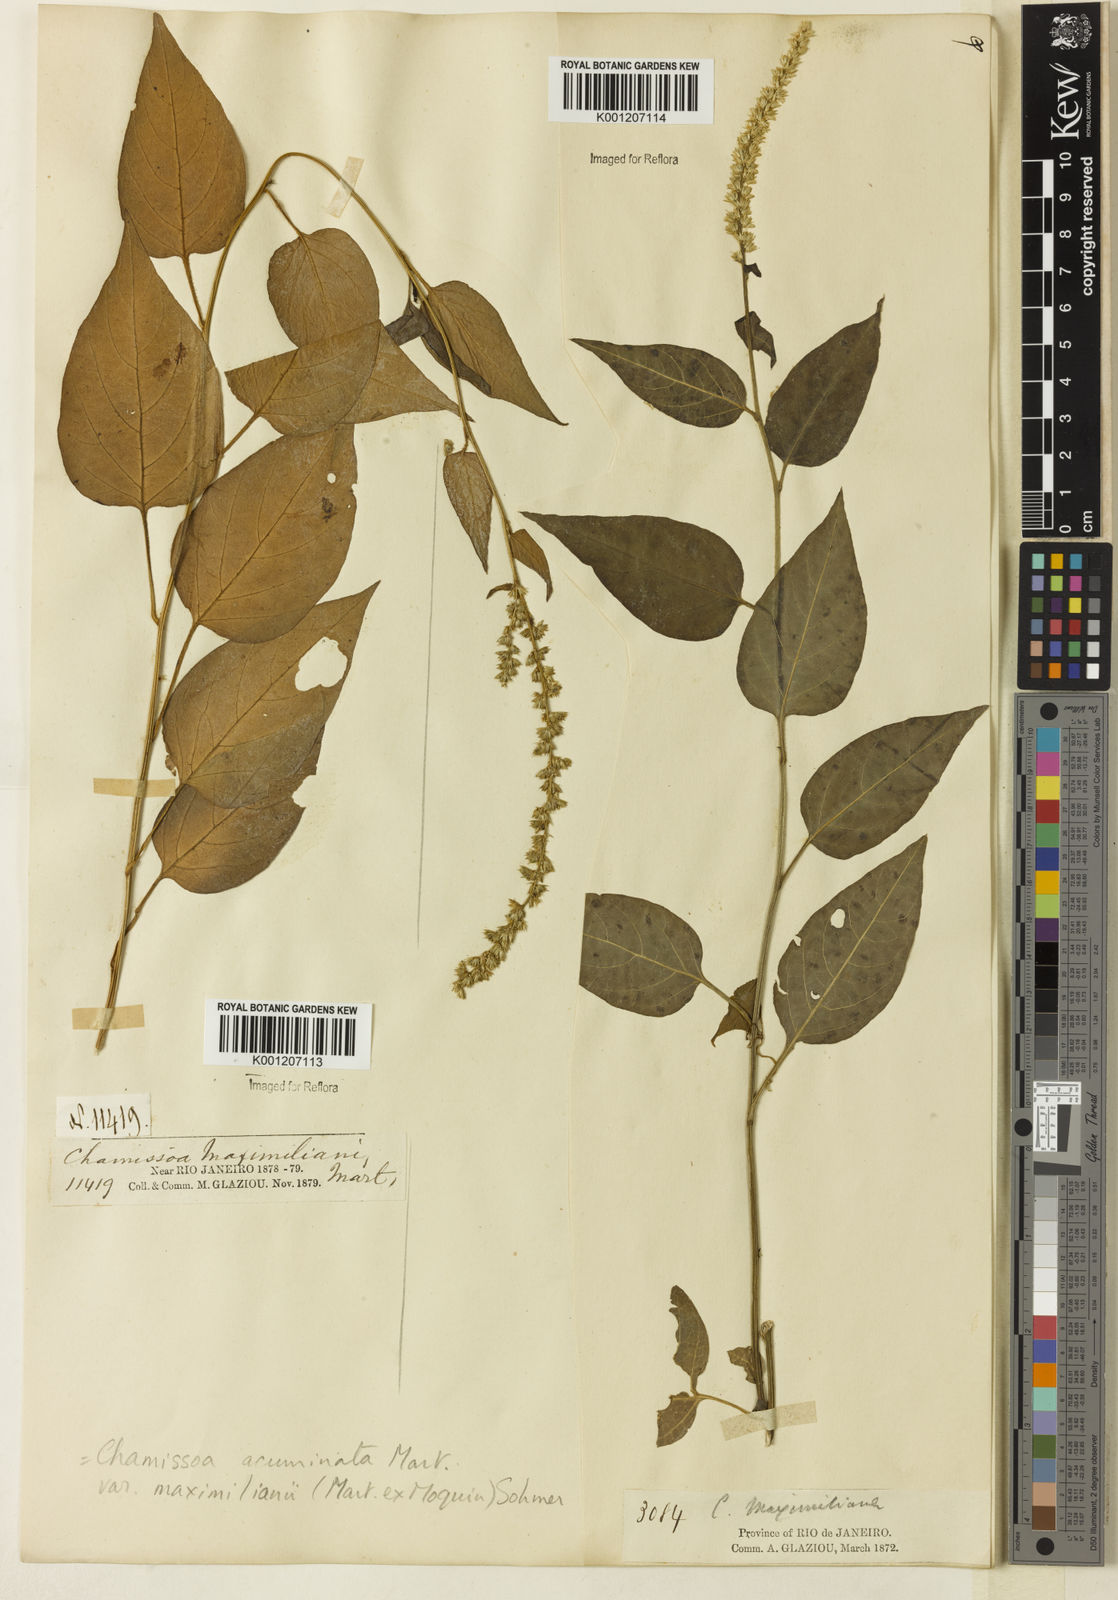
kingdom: Plantae
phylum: Tracheophyta
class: Magnoliopsida
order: Caryophyllales
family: Amaranthaceae
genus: Chamissoa
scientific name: Chamissoa maximiliani
